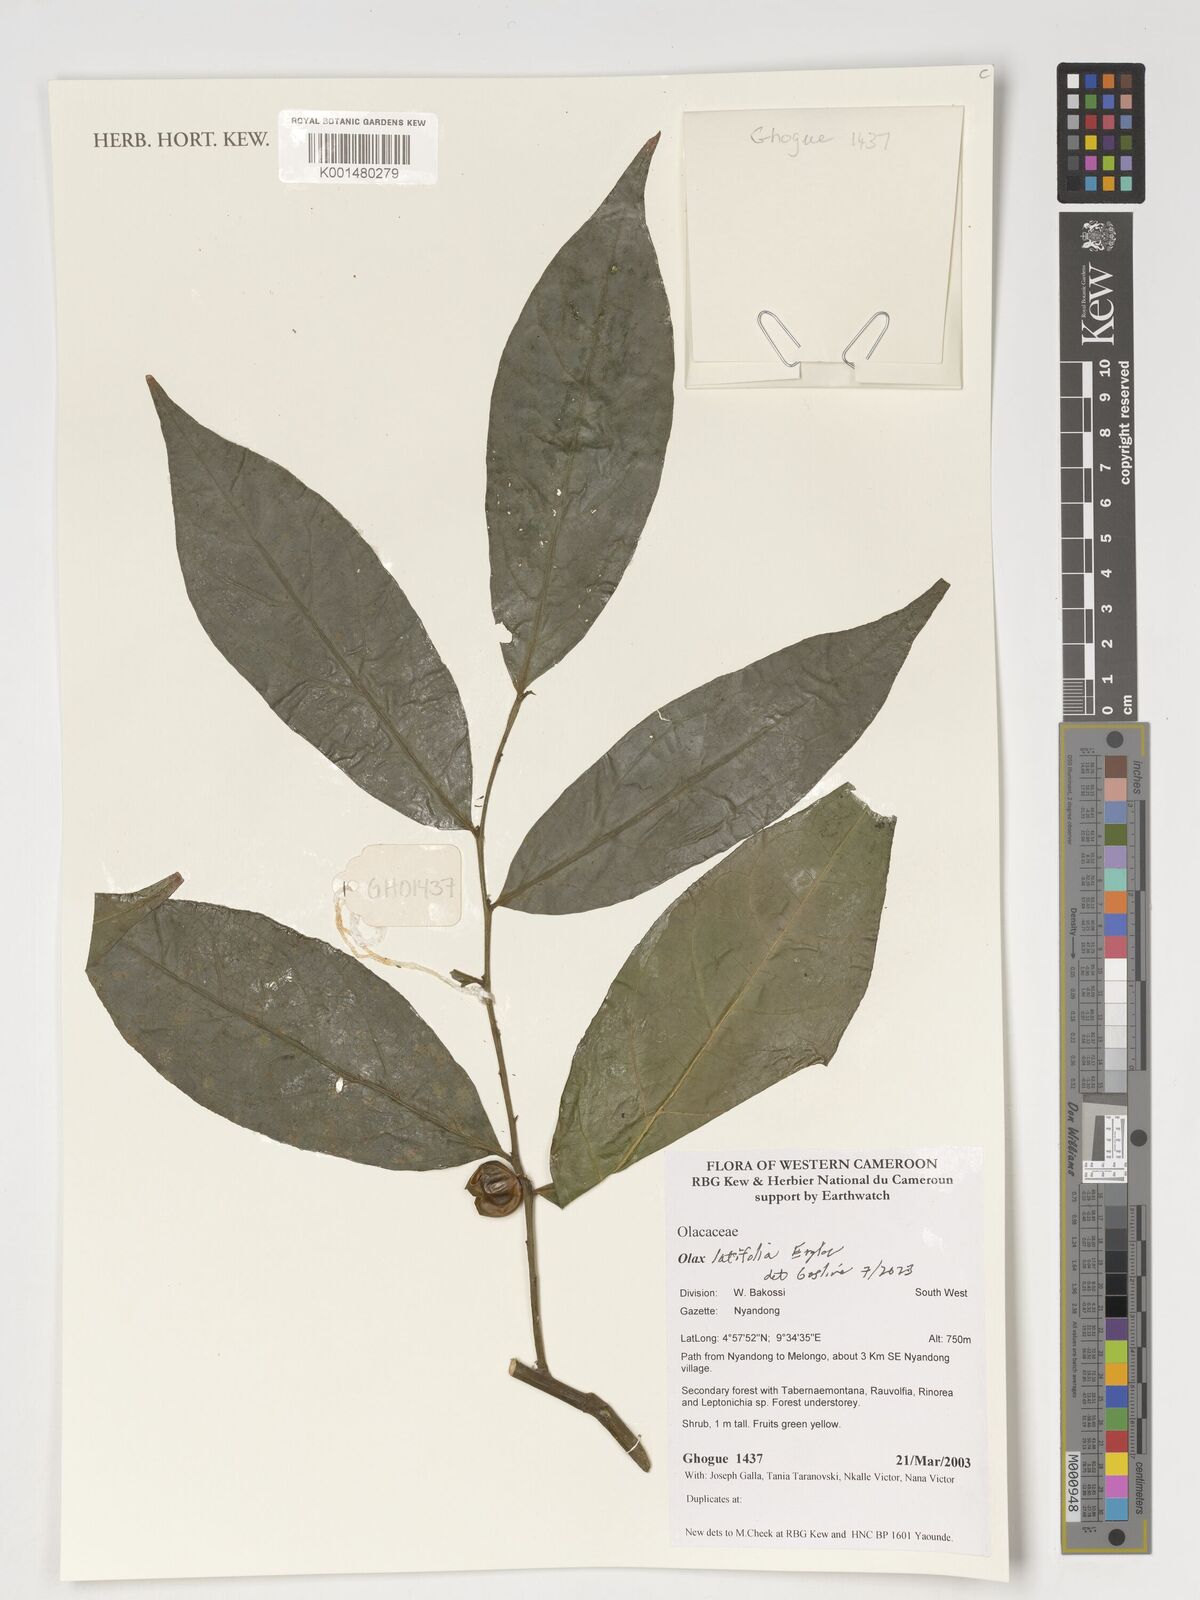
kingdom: Plantae
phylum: Tracheophyta
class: Magnoliopsida
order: Santalales
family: Olacaceae
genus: Olax
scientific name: Olax latifolia
